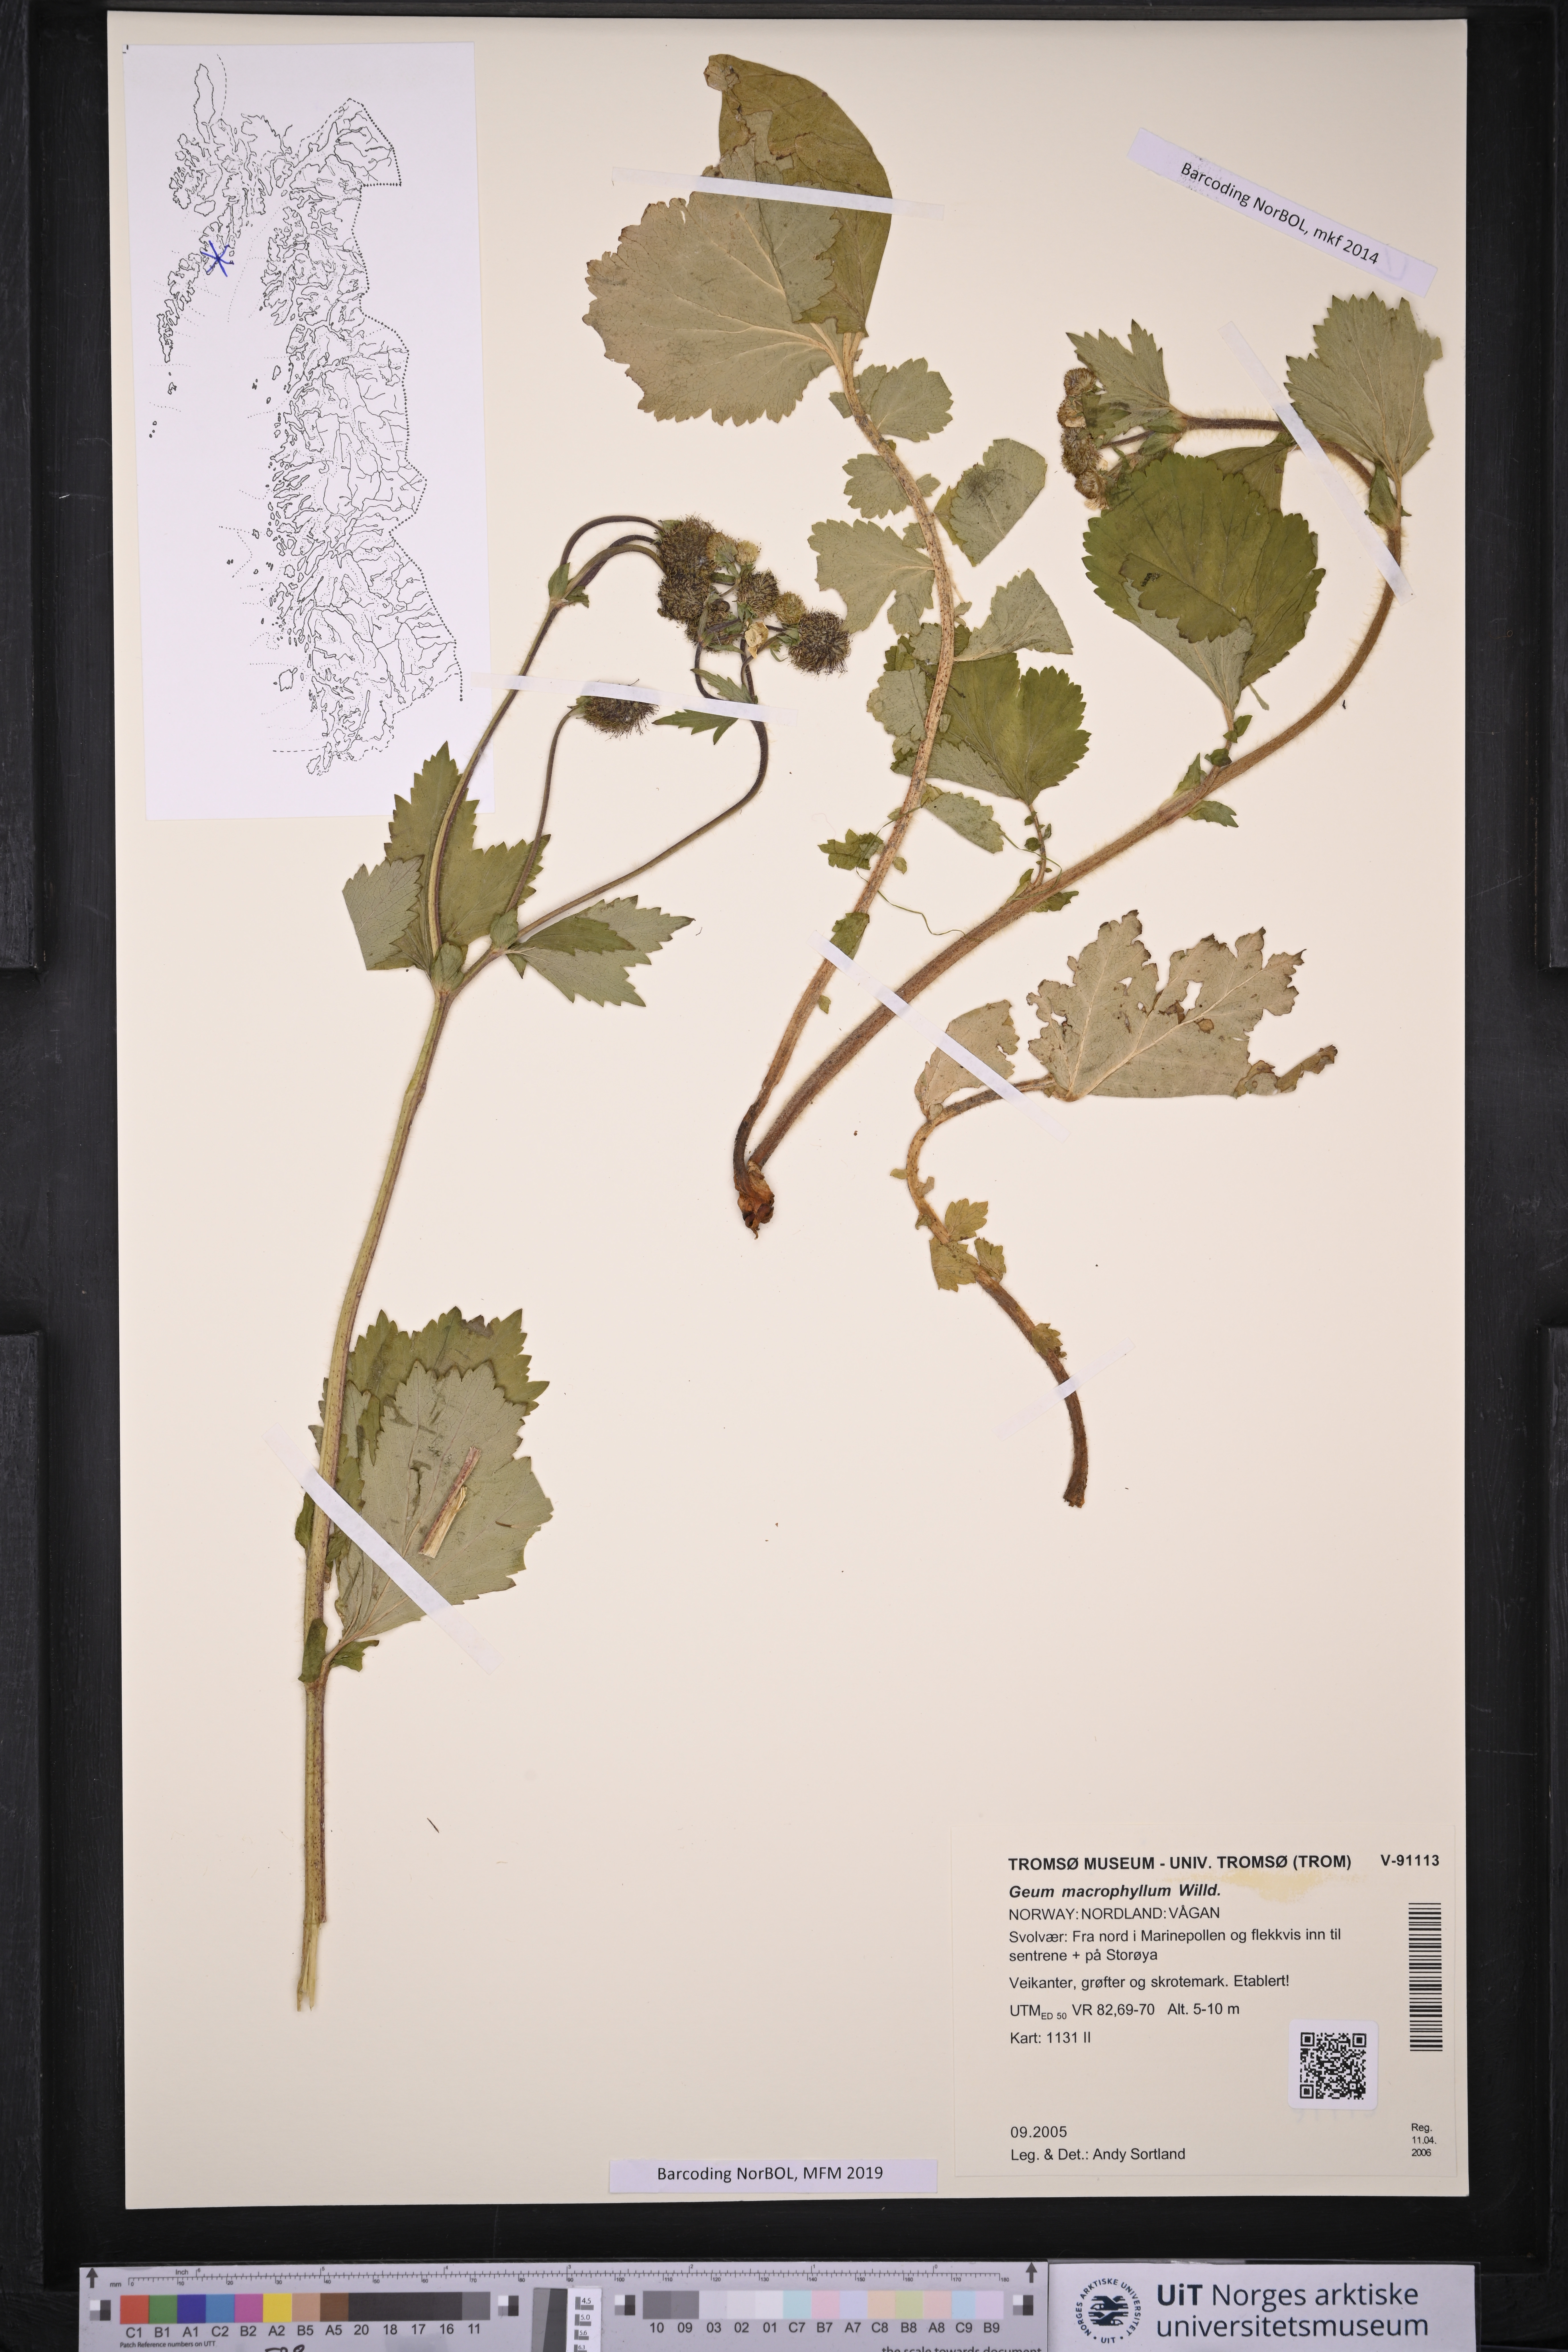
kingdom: Plantae
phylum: Tracheophyta
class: Magnoliopsida
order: Rosales
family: Rosaceae
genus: Geum
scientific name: Geum macrophyllum
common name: Large-leaved avens
